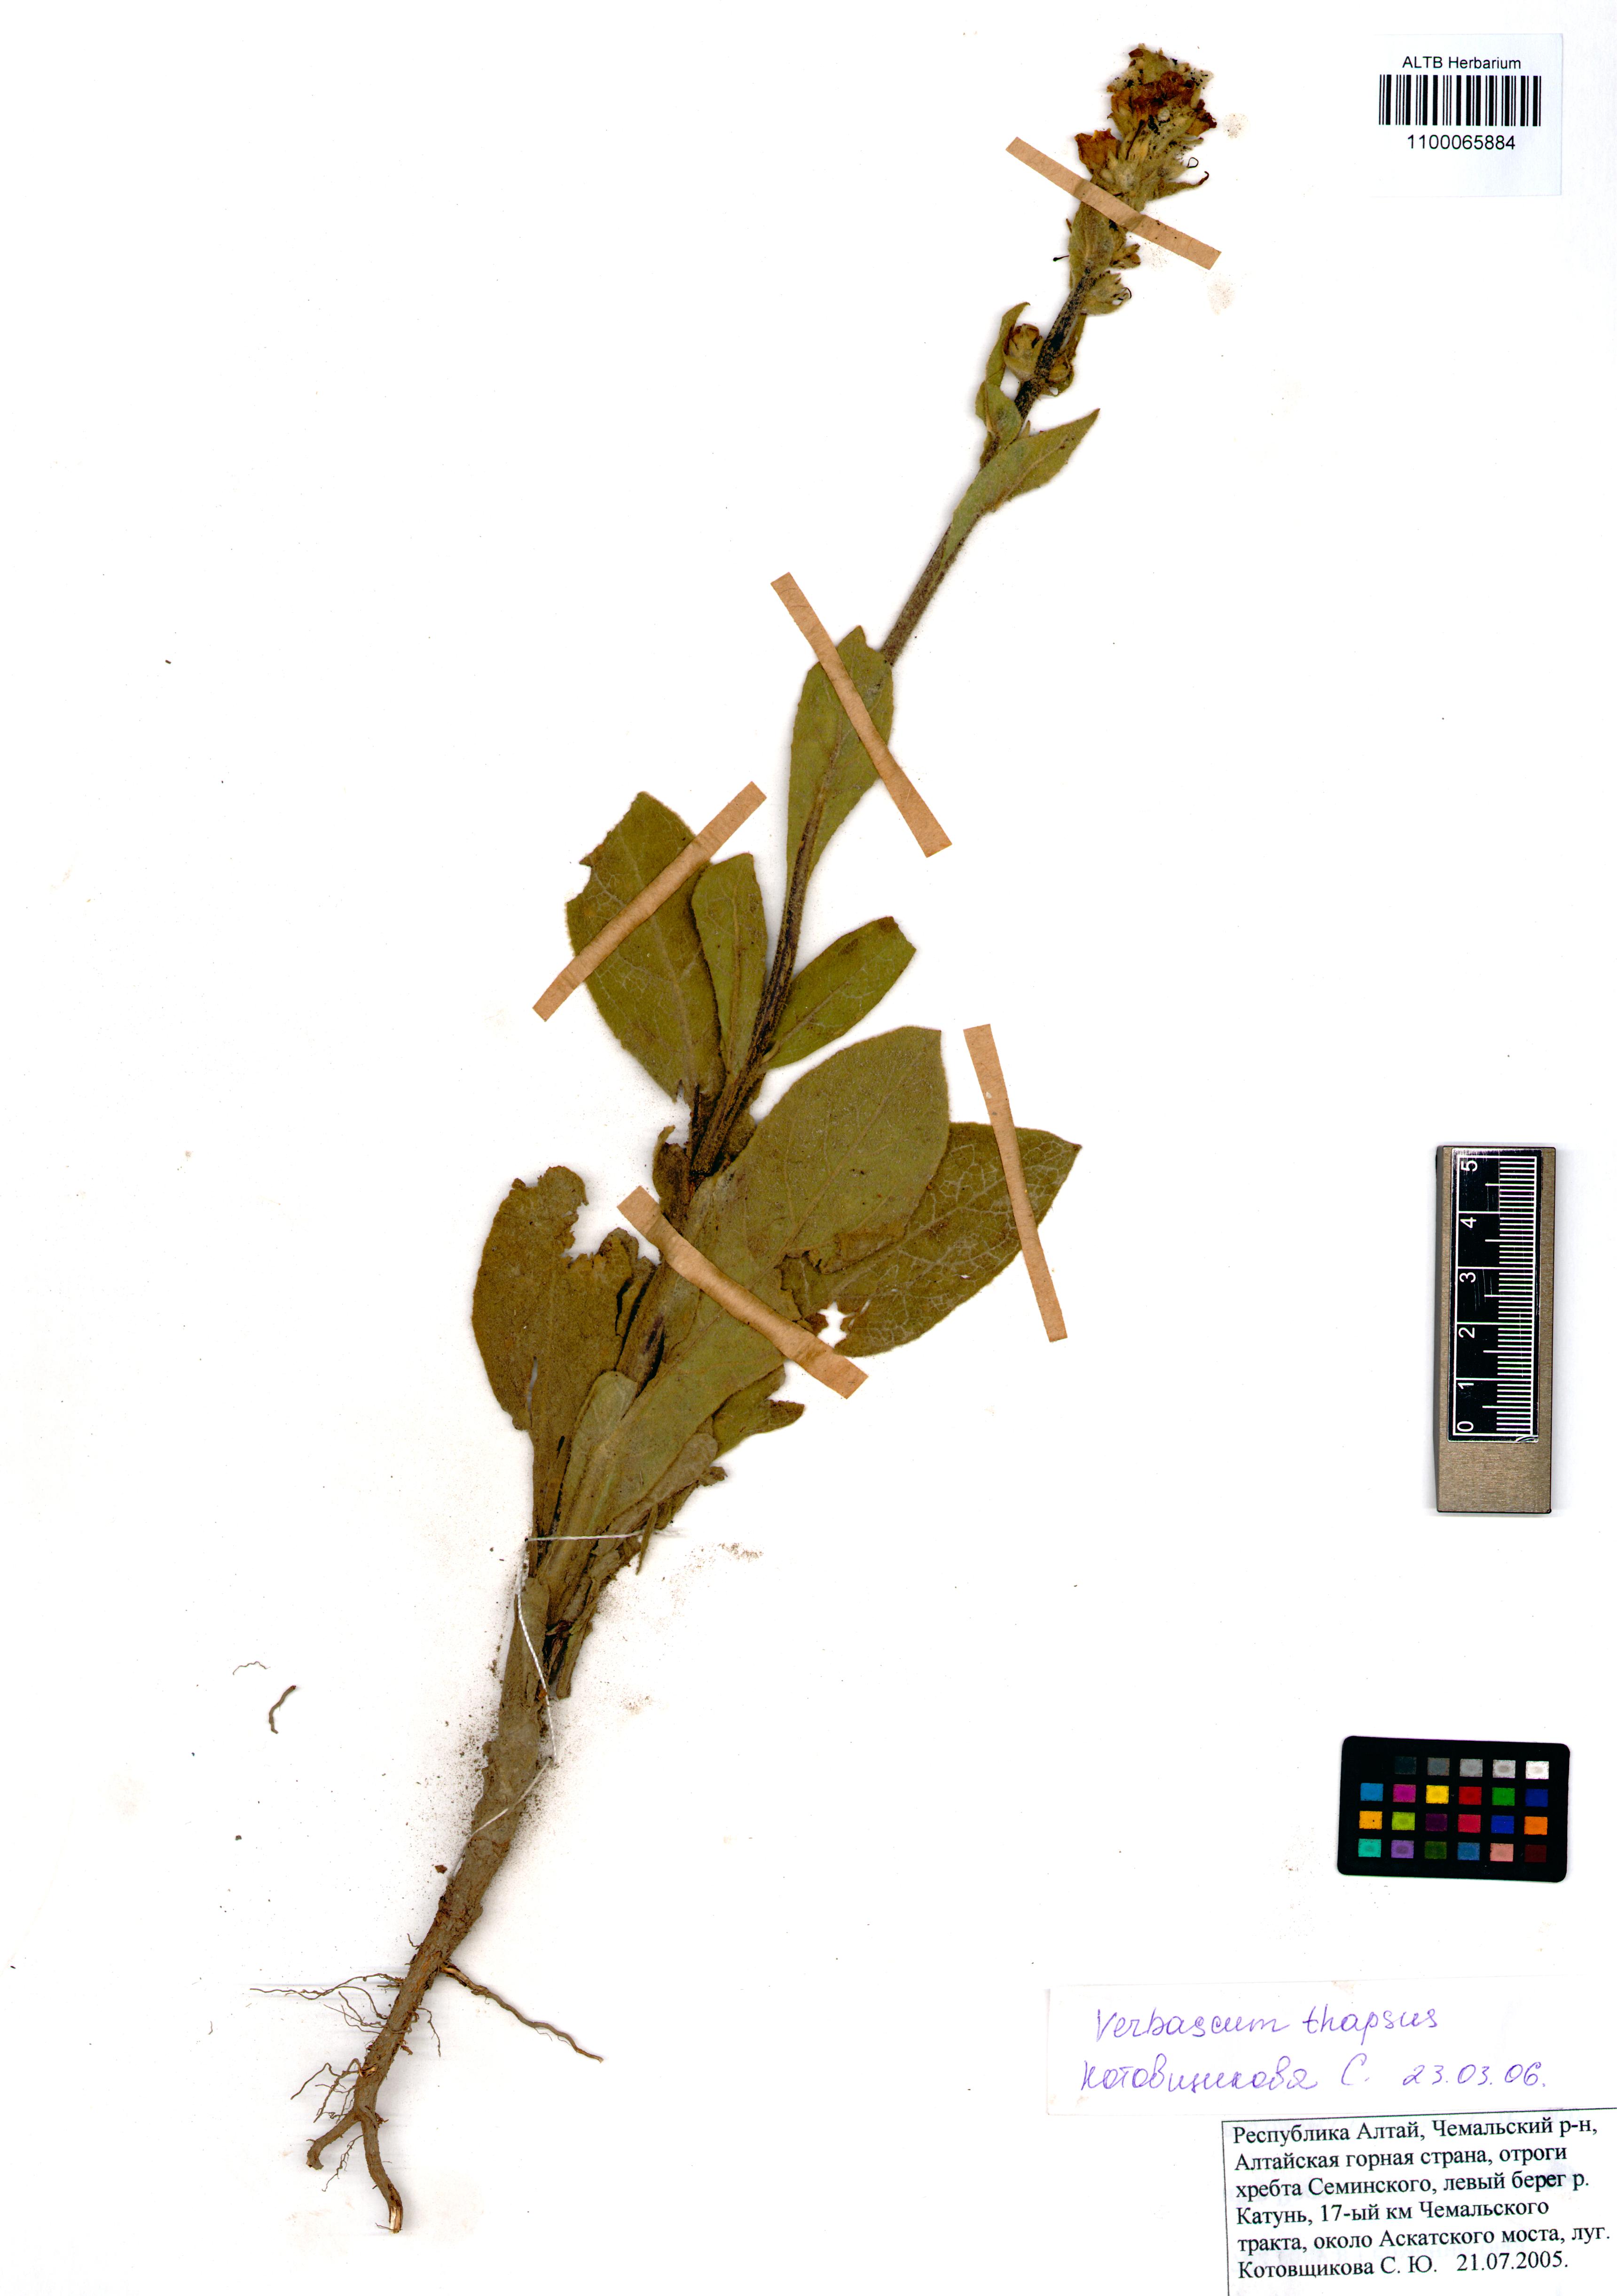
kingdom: Plantae
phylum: Tracheophyta
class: Magnoliopsida
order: Lamiales
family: Scrophulariaceae
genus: Verbascum
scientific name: Verbascum thapsus
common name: Common mullein
